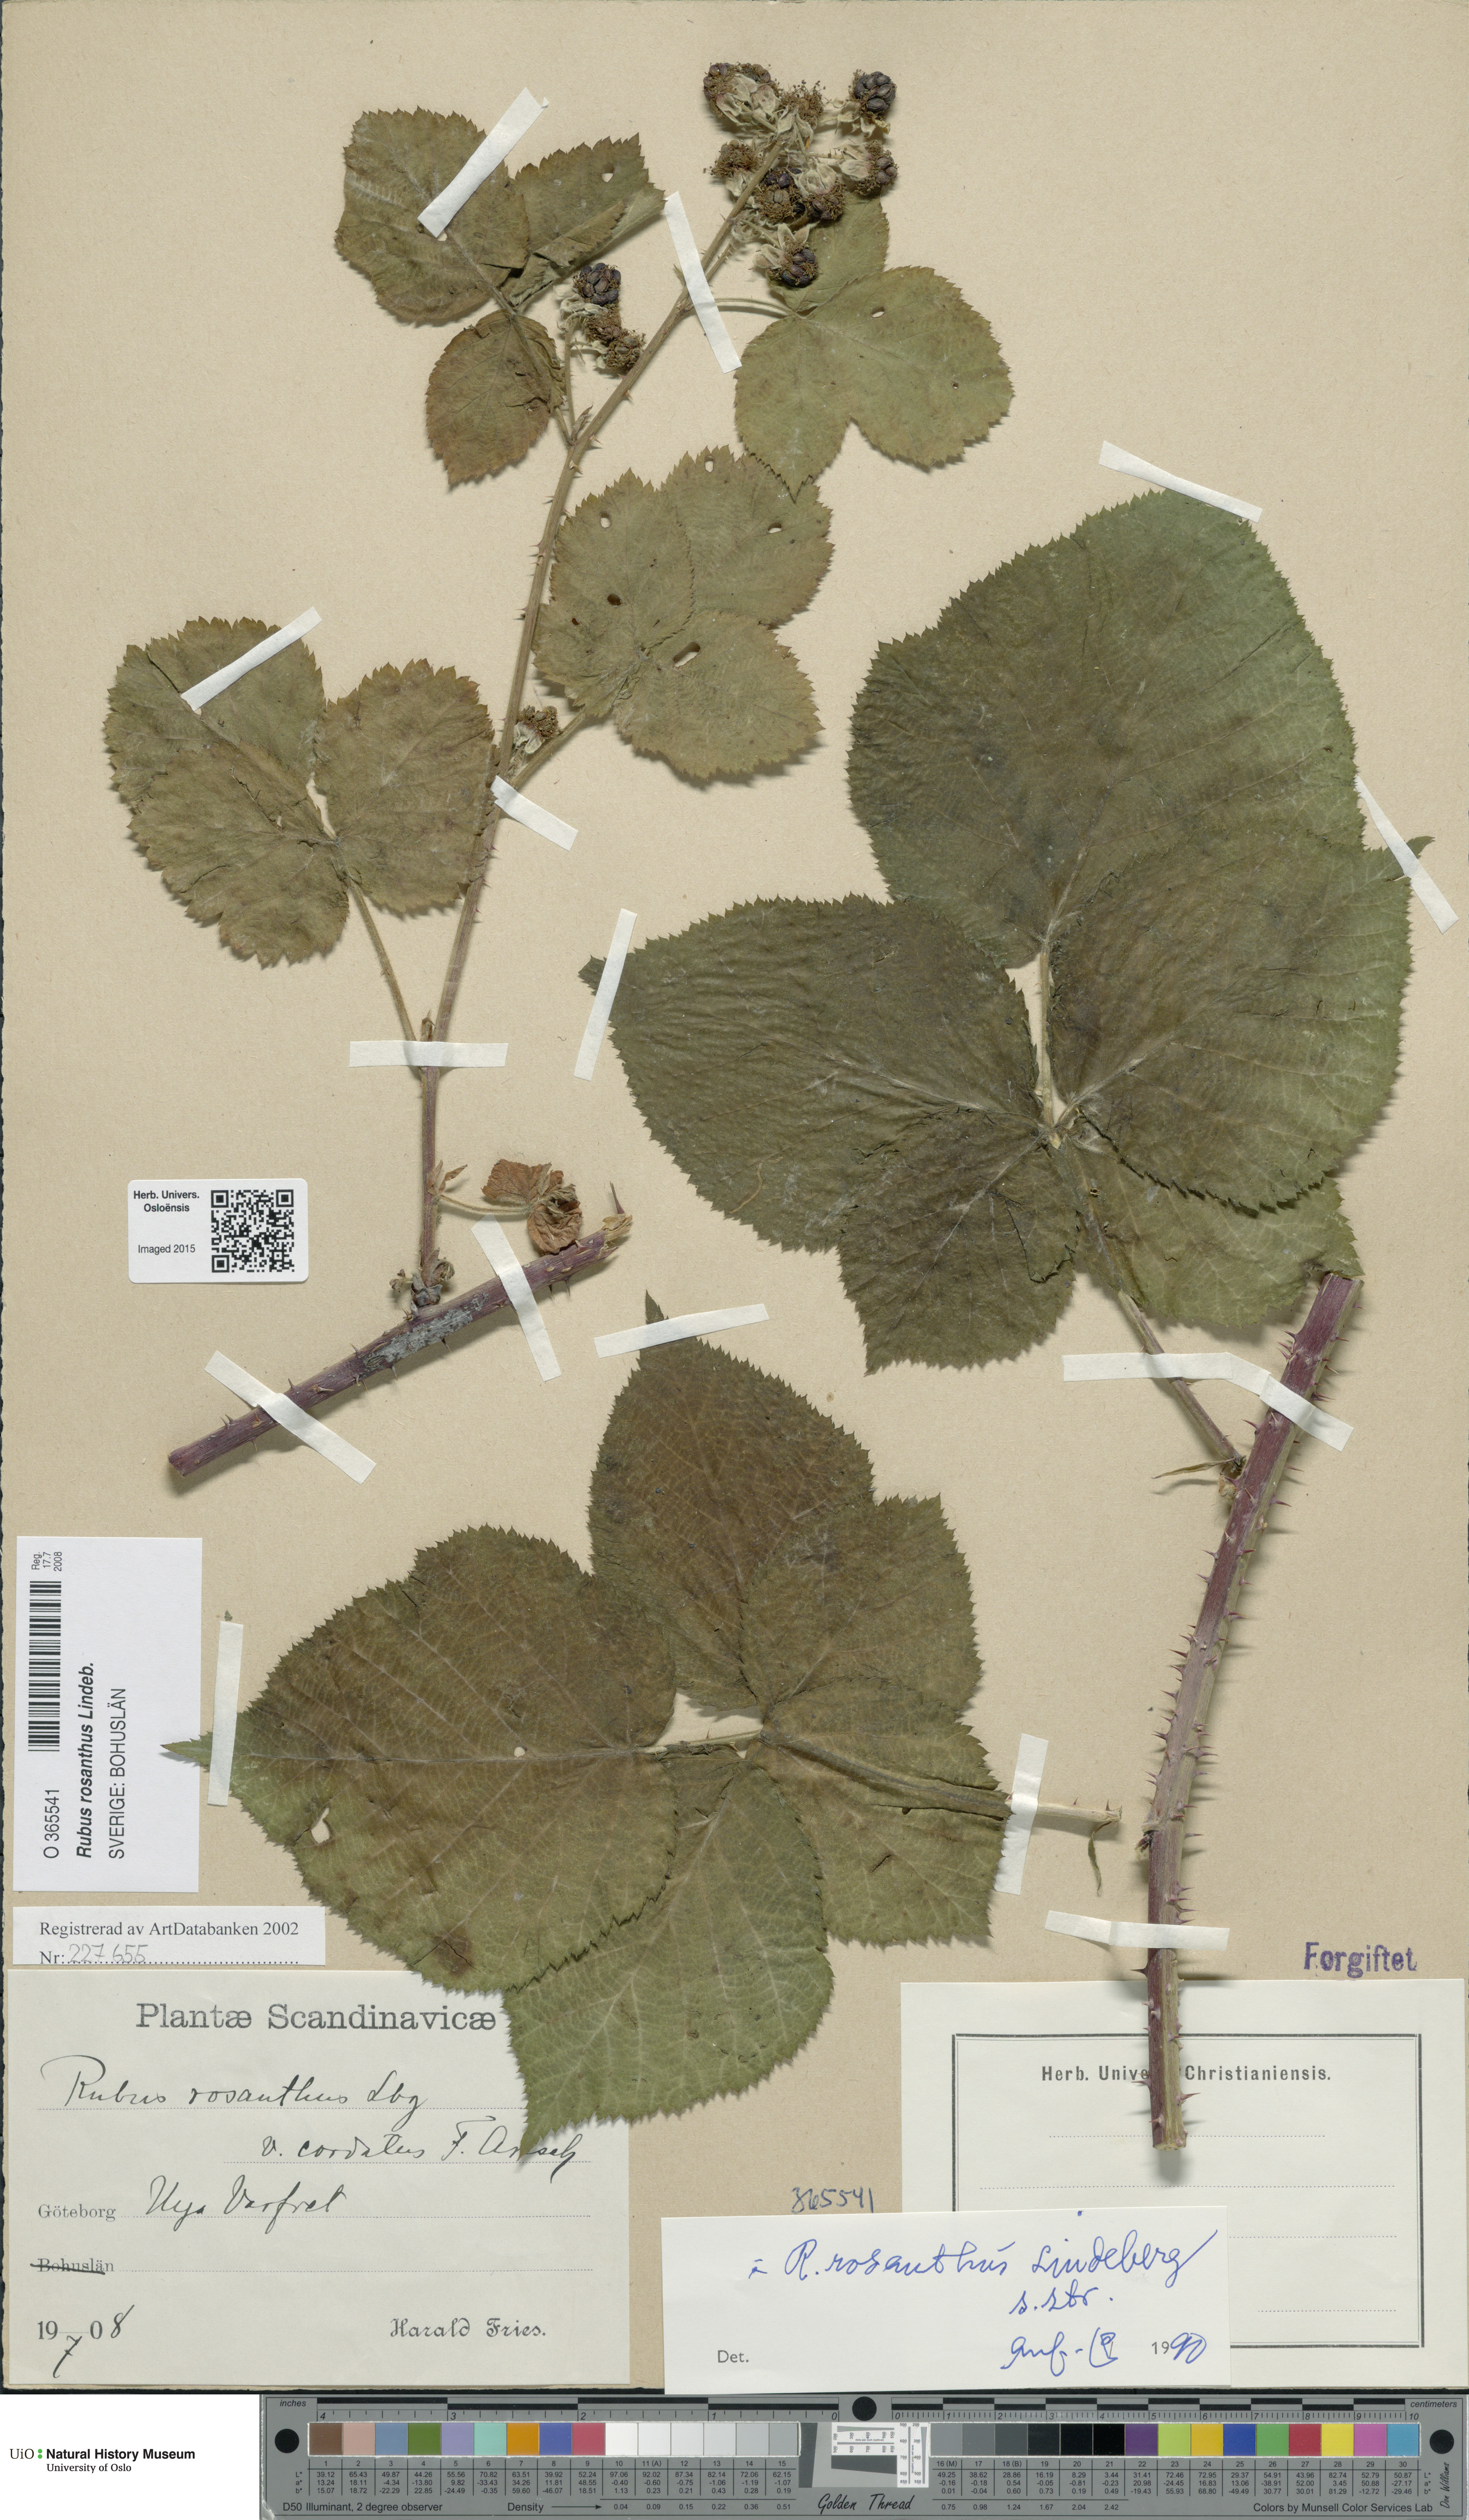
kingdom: Plantae
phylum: Tracheophyta
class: Magnoliopsida
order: Rosales
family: Rosaceae
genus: Rubus
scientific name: Rubus rosanthus
